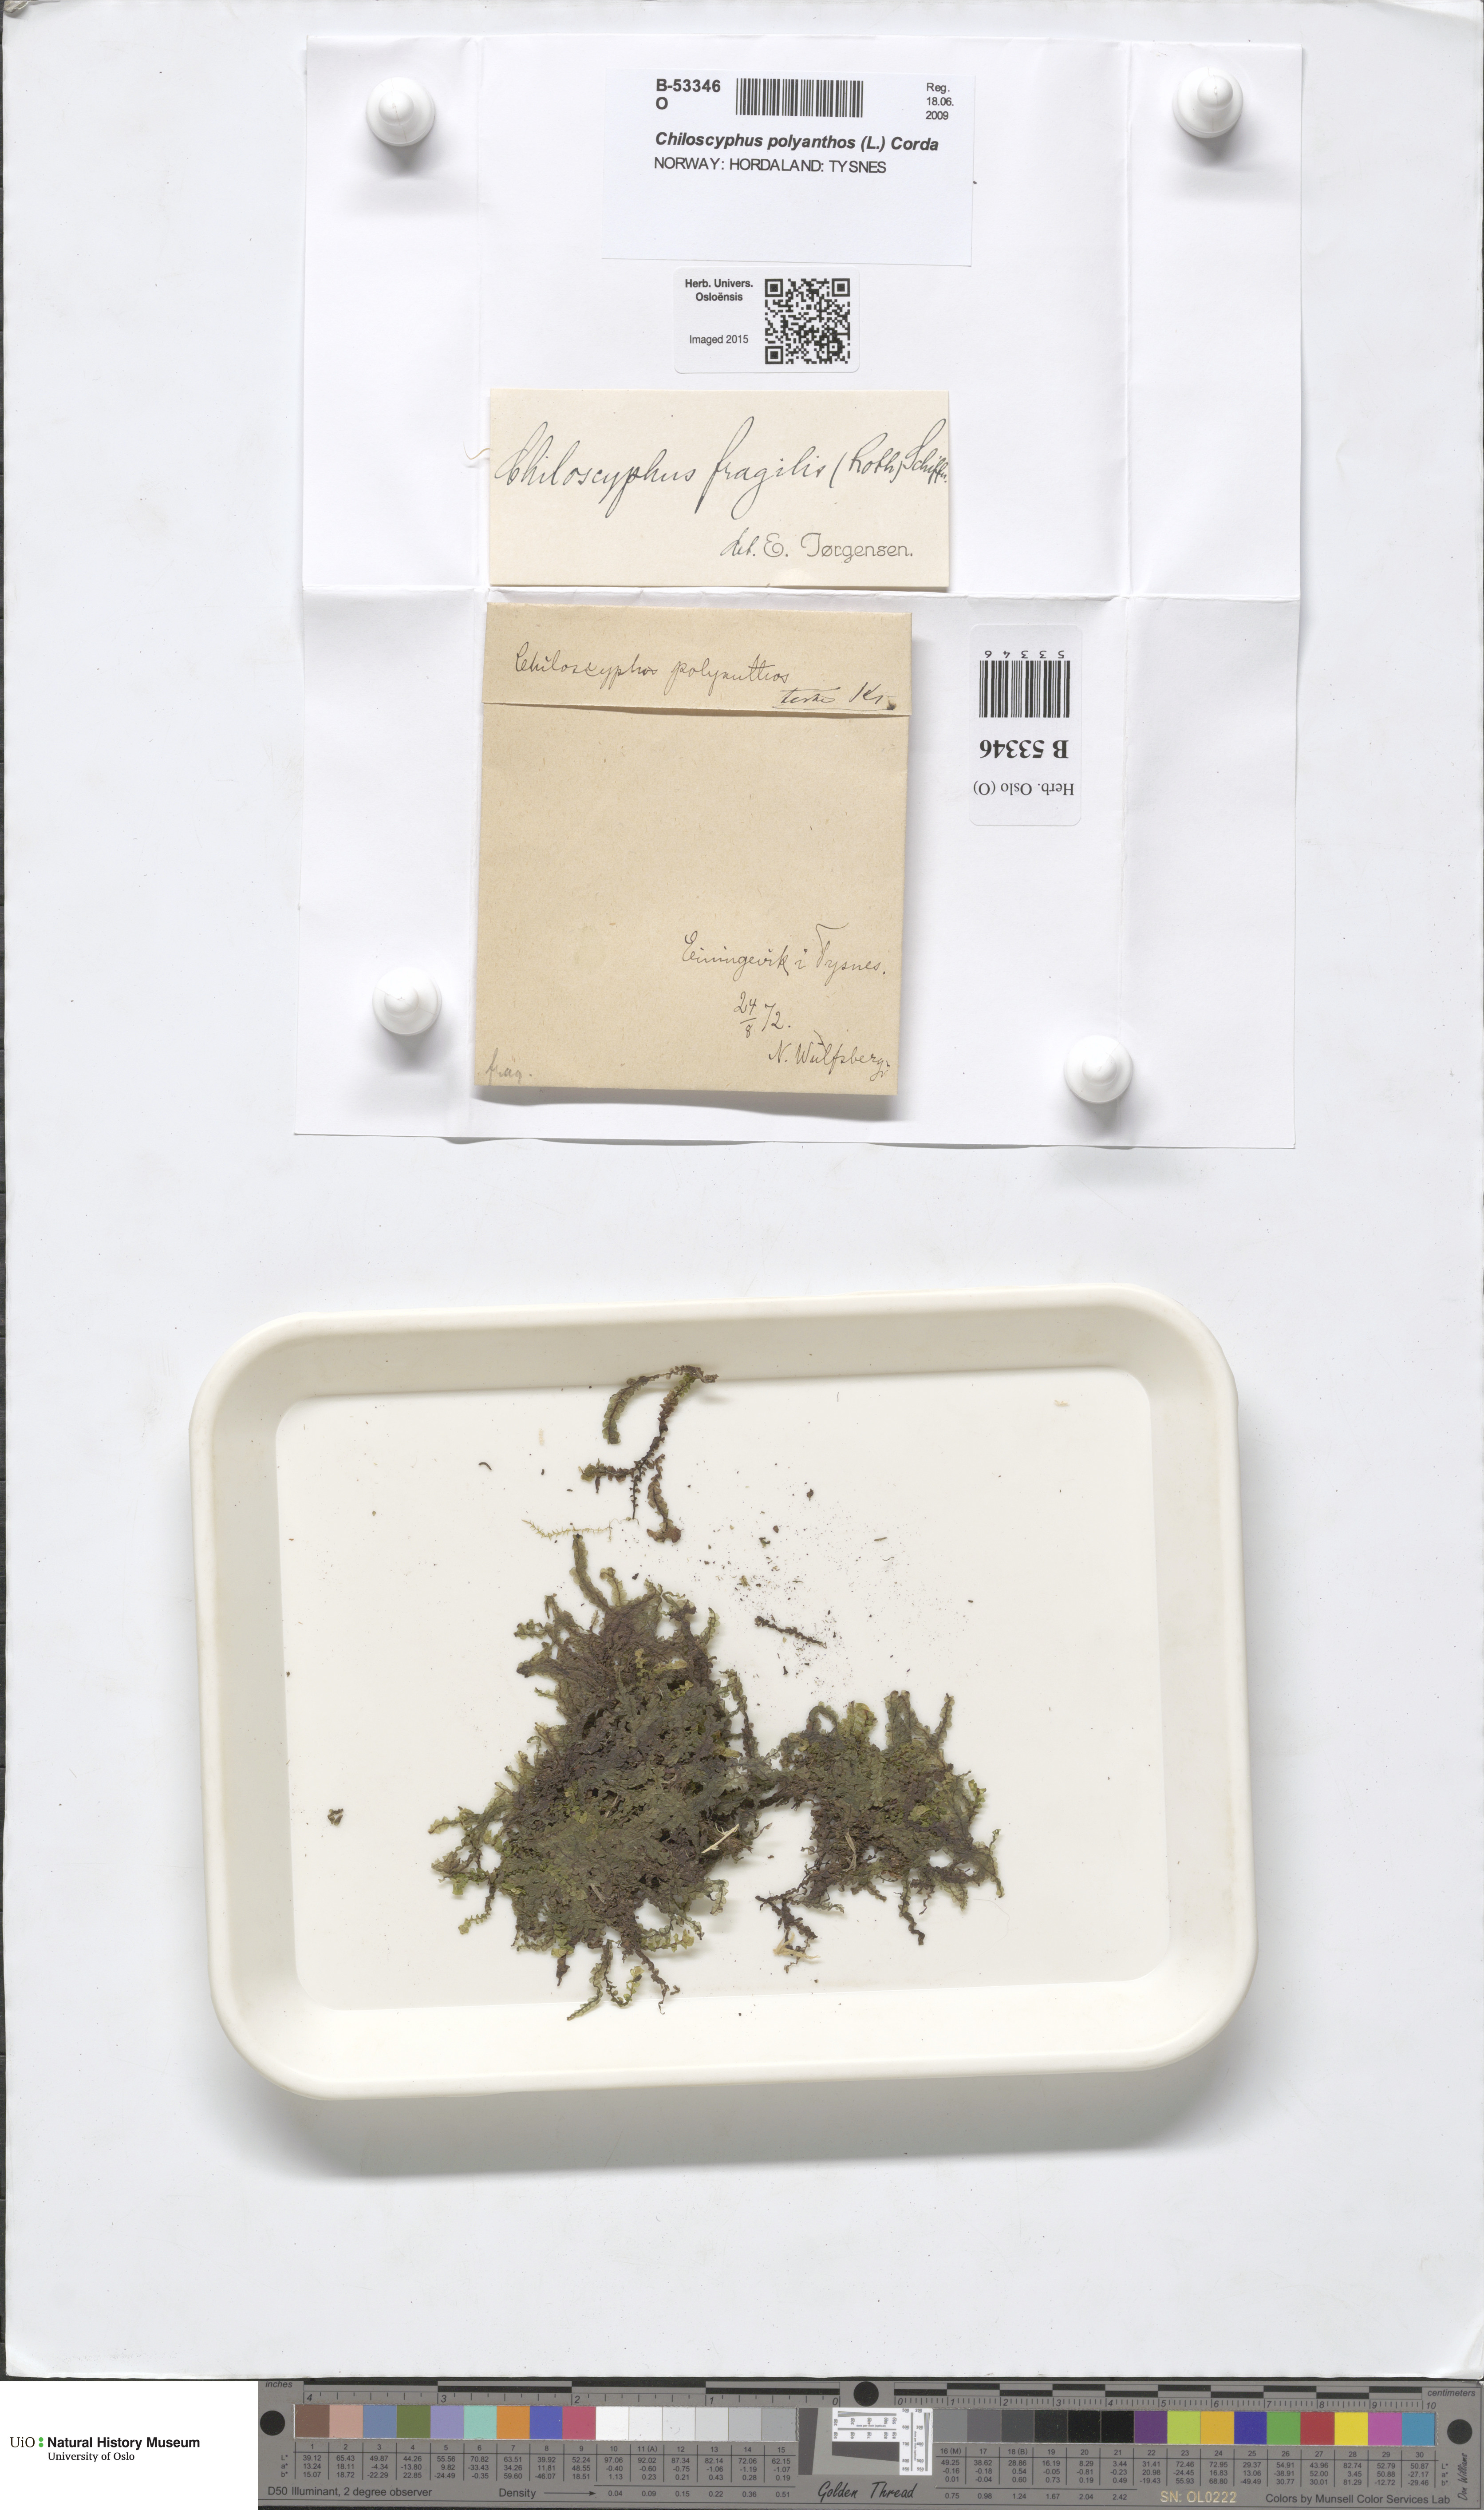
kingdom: Plantae
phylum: Marchantiophyta
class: Jungermanniopsida
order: Jungermanniales
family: Lophocoleaceae
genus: Chiloscyphus
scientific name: Chiloscyphus pallescens
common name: St winifrid's other moss
